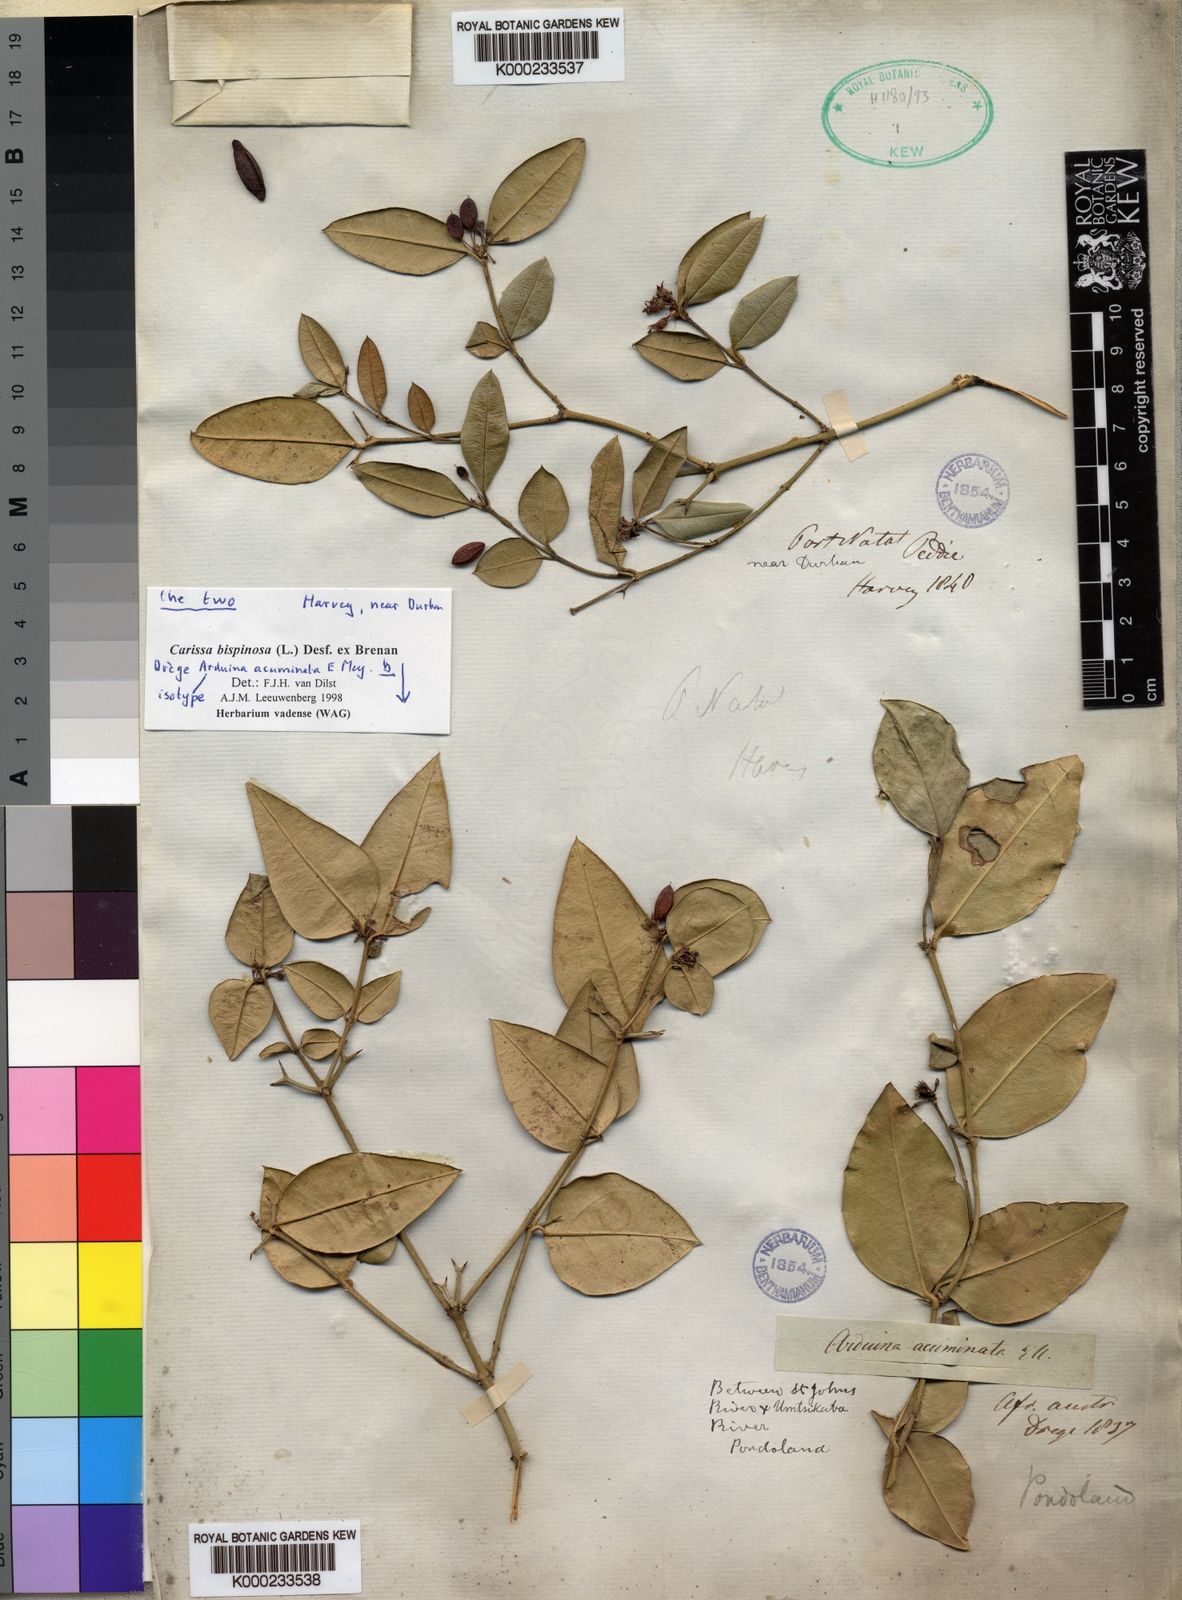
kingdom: Plantae
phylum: Tracheophyta
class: Magnoliopsida
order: Gentianales
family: Apocynaceae
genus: Carissa
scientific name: Carissa bispinosa
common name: Forest num-num
